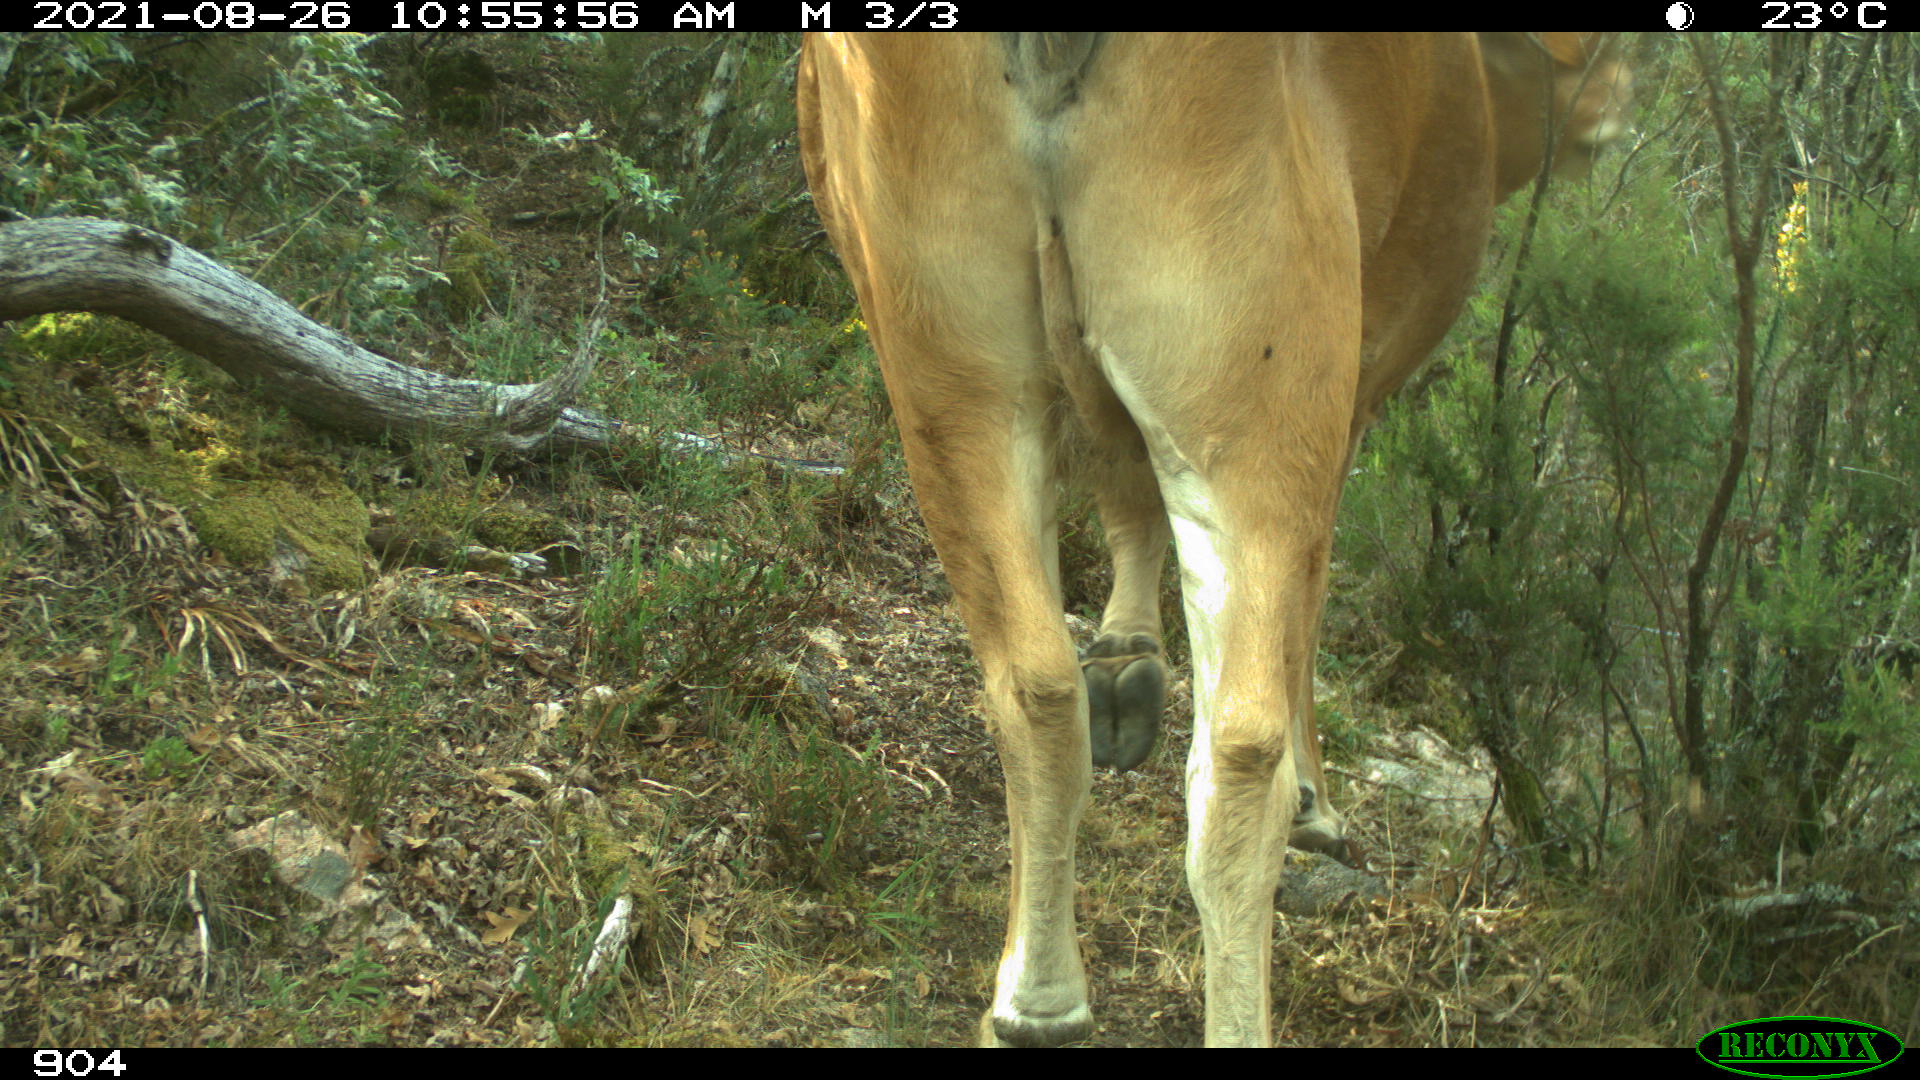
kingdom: Animalia
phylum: Chordata
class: Mammalia
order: Artiodactyla
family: Bovidae
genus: Bos
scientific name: Bos taurus
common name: Domesticated cattle
